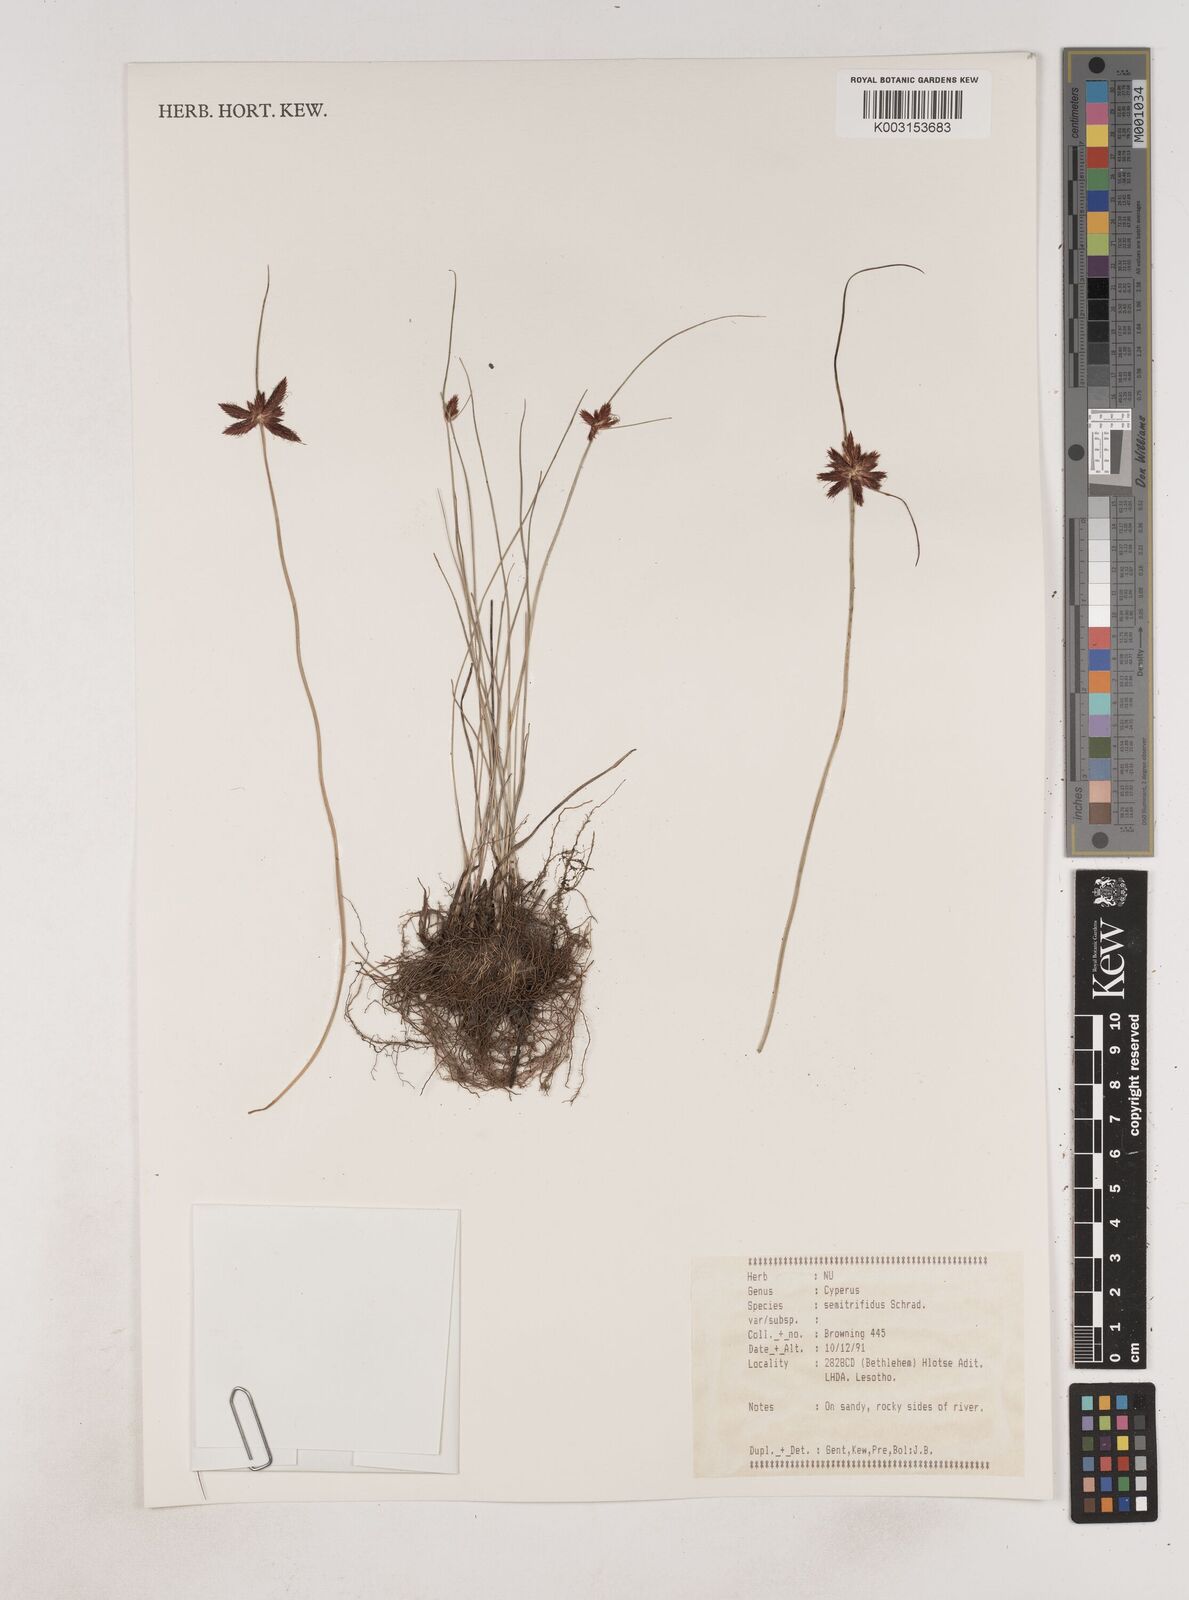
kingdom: Plantae
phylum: Tracheophyta
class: Liliopsida
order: Poales
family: Cyperaceae
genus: Cyperus
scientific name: Cyperus semitrifidus
